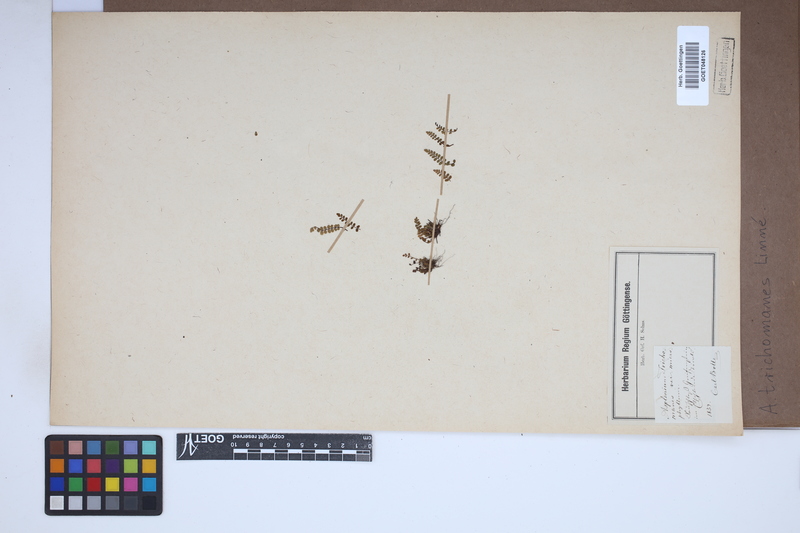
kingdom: Plantae
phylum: Tracheophyta
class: Polypodiopsida
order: Polypodiales
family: Aspleniaceae
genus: Asplenium
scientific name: Asplenium trichomanes
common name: Maidenhair spleenwort
